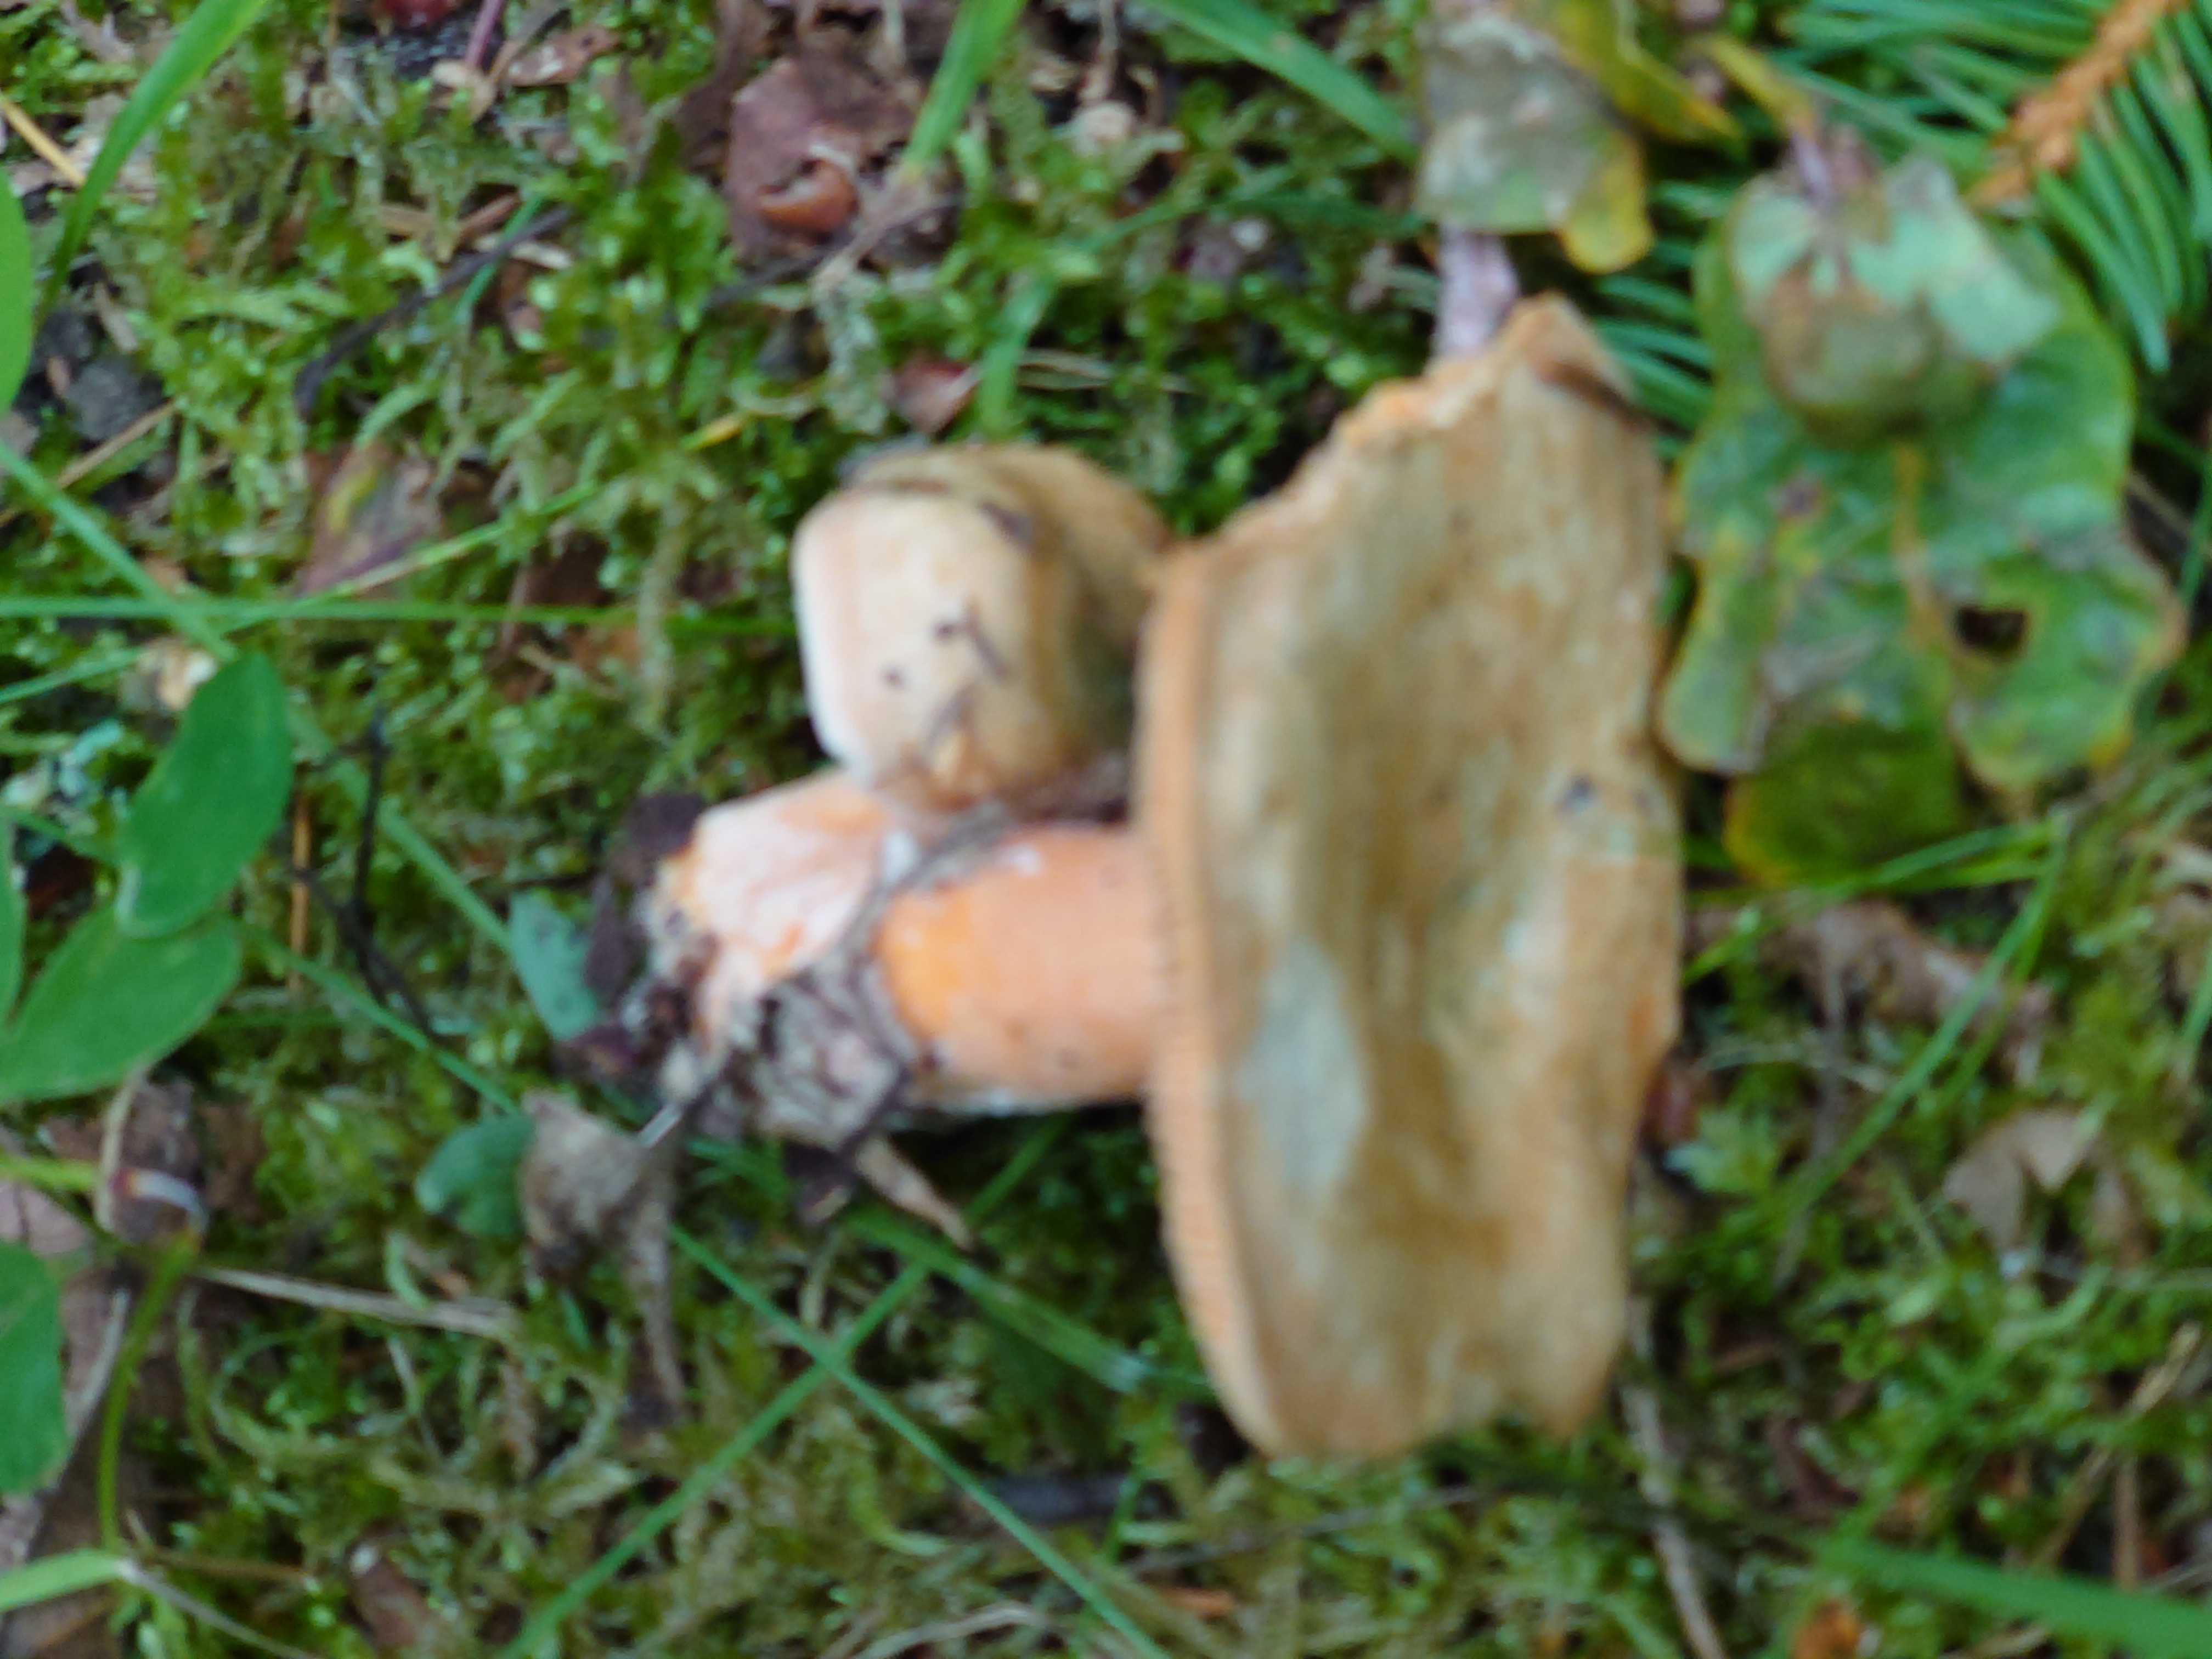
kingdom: Fungi
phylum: Basidiomycota
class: Agaricomycetes
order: Russulales
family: Russulaceae
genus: Lactarius
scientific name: Lactarius deterrimus
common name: gran-mælkehat
